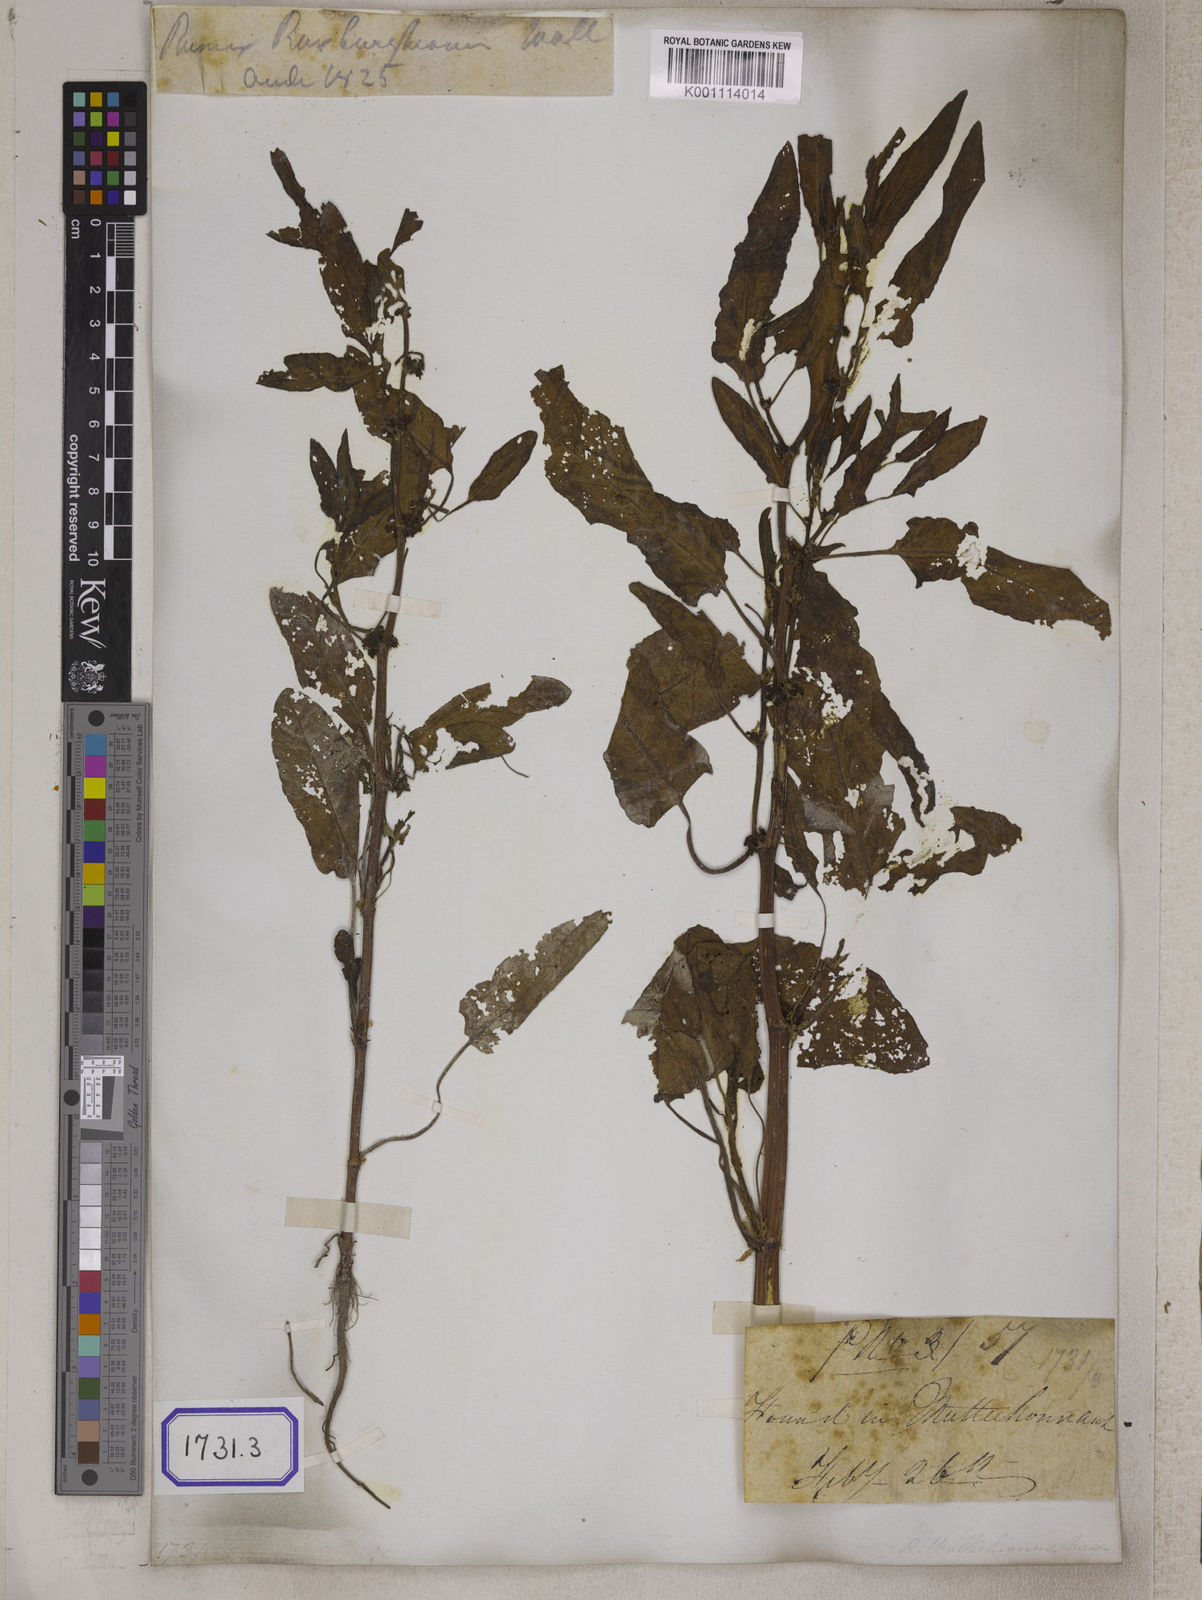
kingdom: Plantae
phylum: Tracheophyta
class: Magnoliopsida
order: Caryophyllales
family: Polygonaceae
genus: Rumex
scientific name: Rumex maritimus
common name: Golden dock
